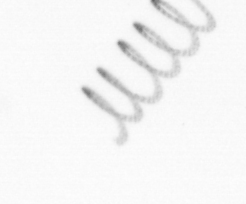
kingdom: Chromista
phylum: Ochrophyta
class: Bacillariophyceae
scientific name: Bacillariophyceae
